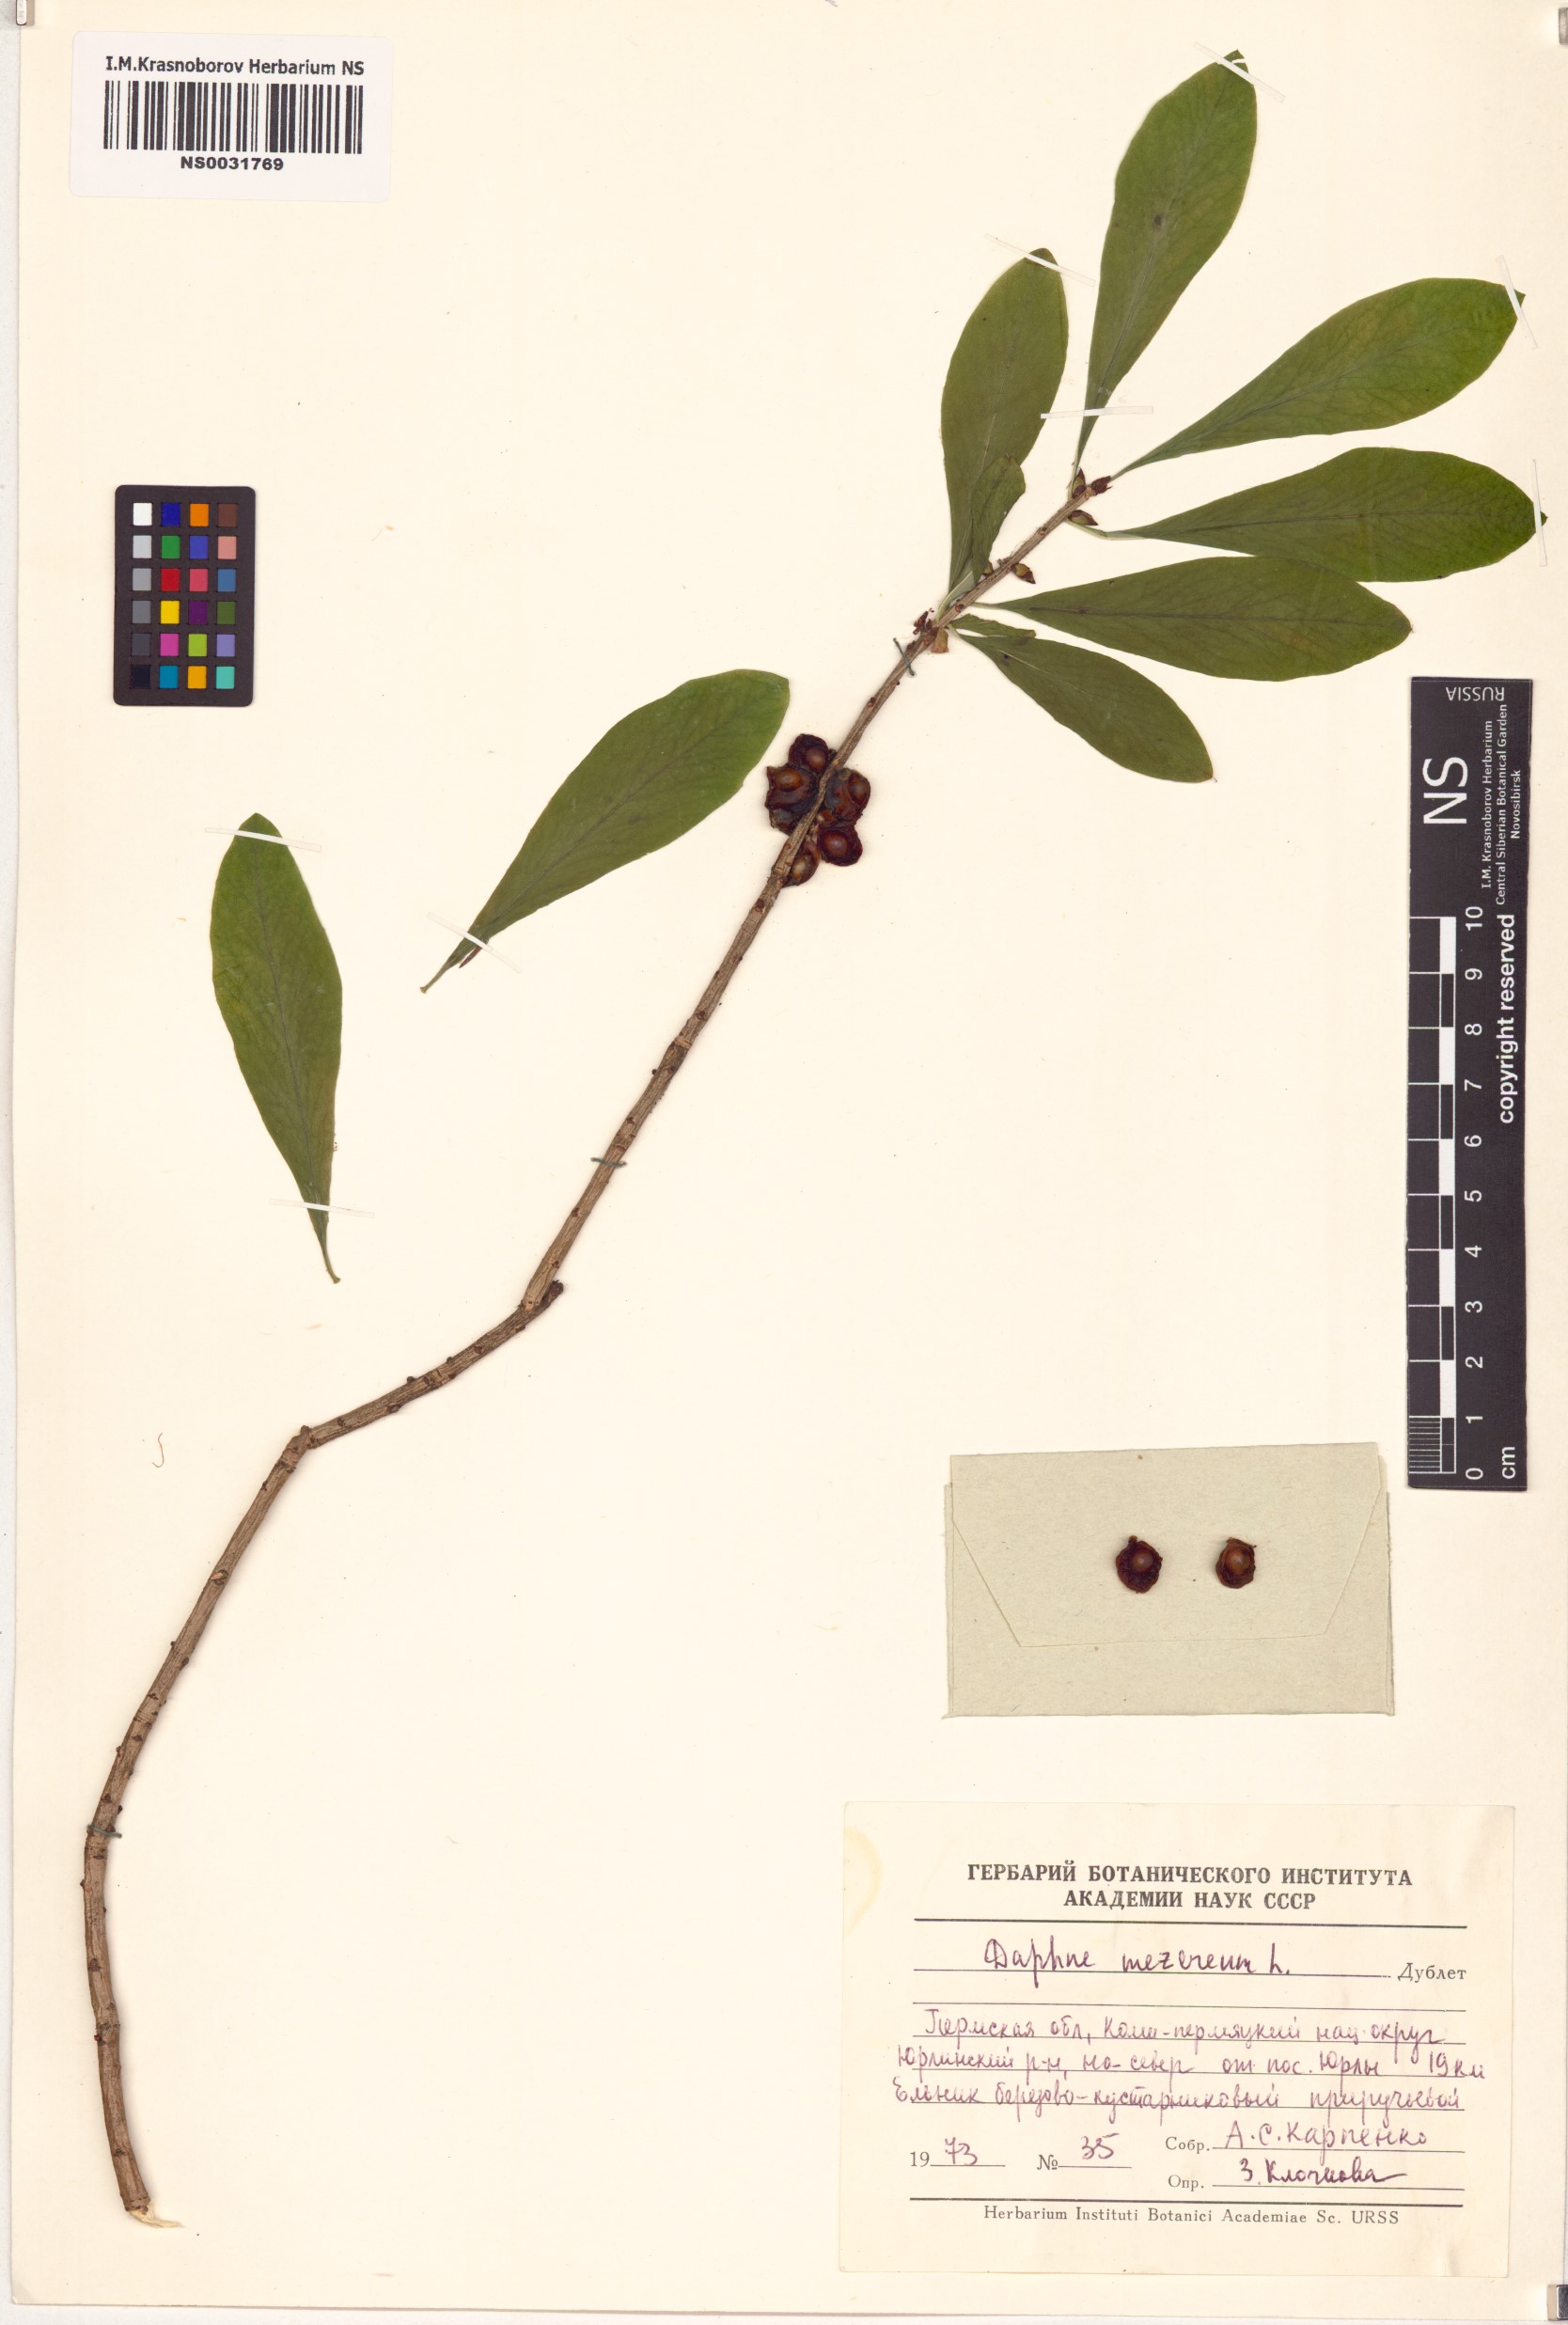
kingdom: Plantae
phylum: Tracheophyta
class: Magnoliopsida
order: Malvales
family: Thymelaeaceae
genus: Daphne
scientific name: Daphne mezereum
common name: Mezereon
